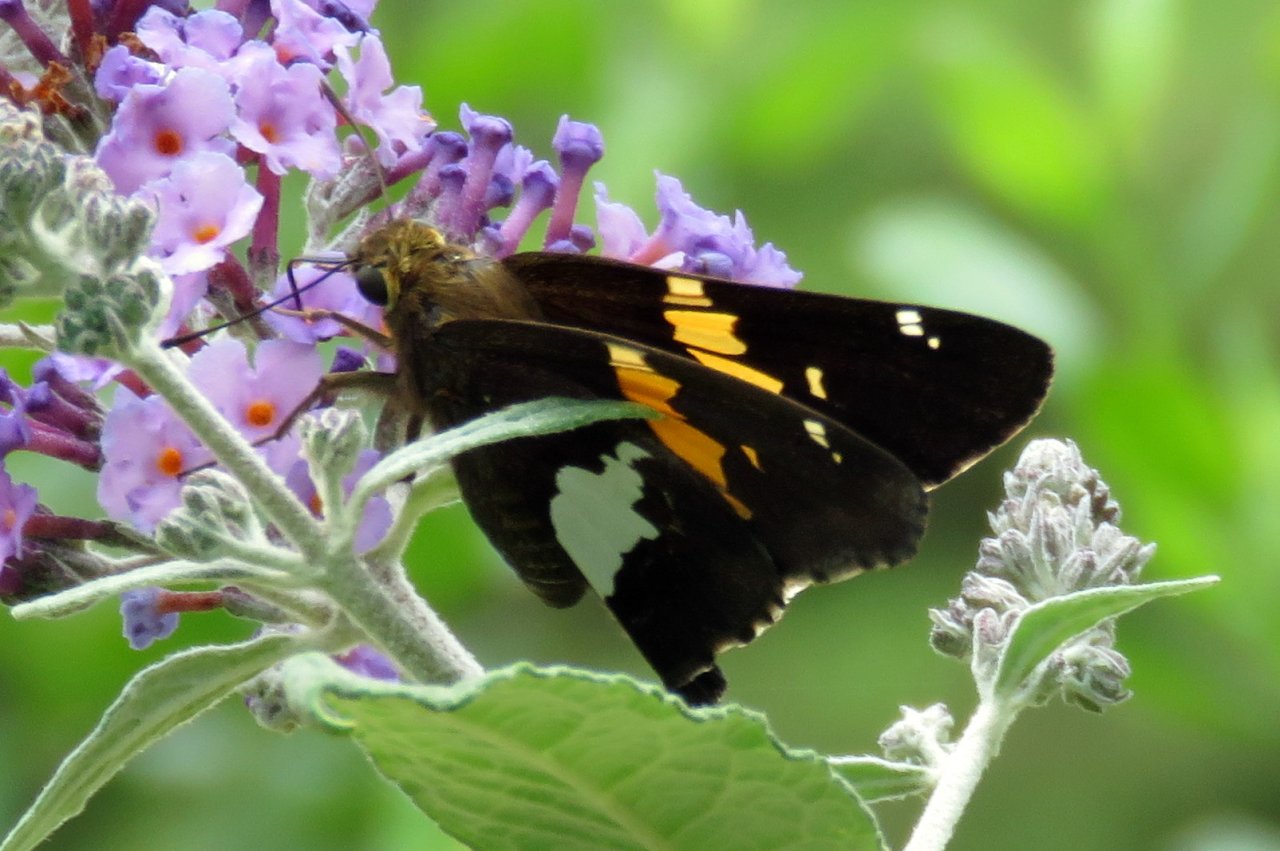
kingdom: Animalia
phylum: Arthropoda
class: Insecta
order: Lepidoptera
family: Hesperiidae
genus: Epargyreus
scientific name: Epargyreus clarus
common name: Silver-spotted Skipper
